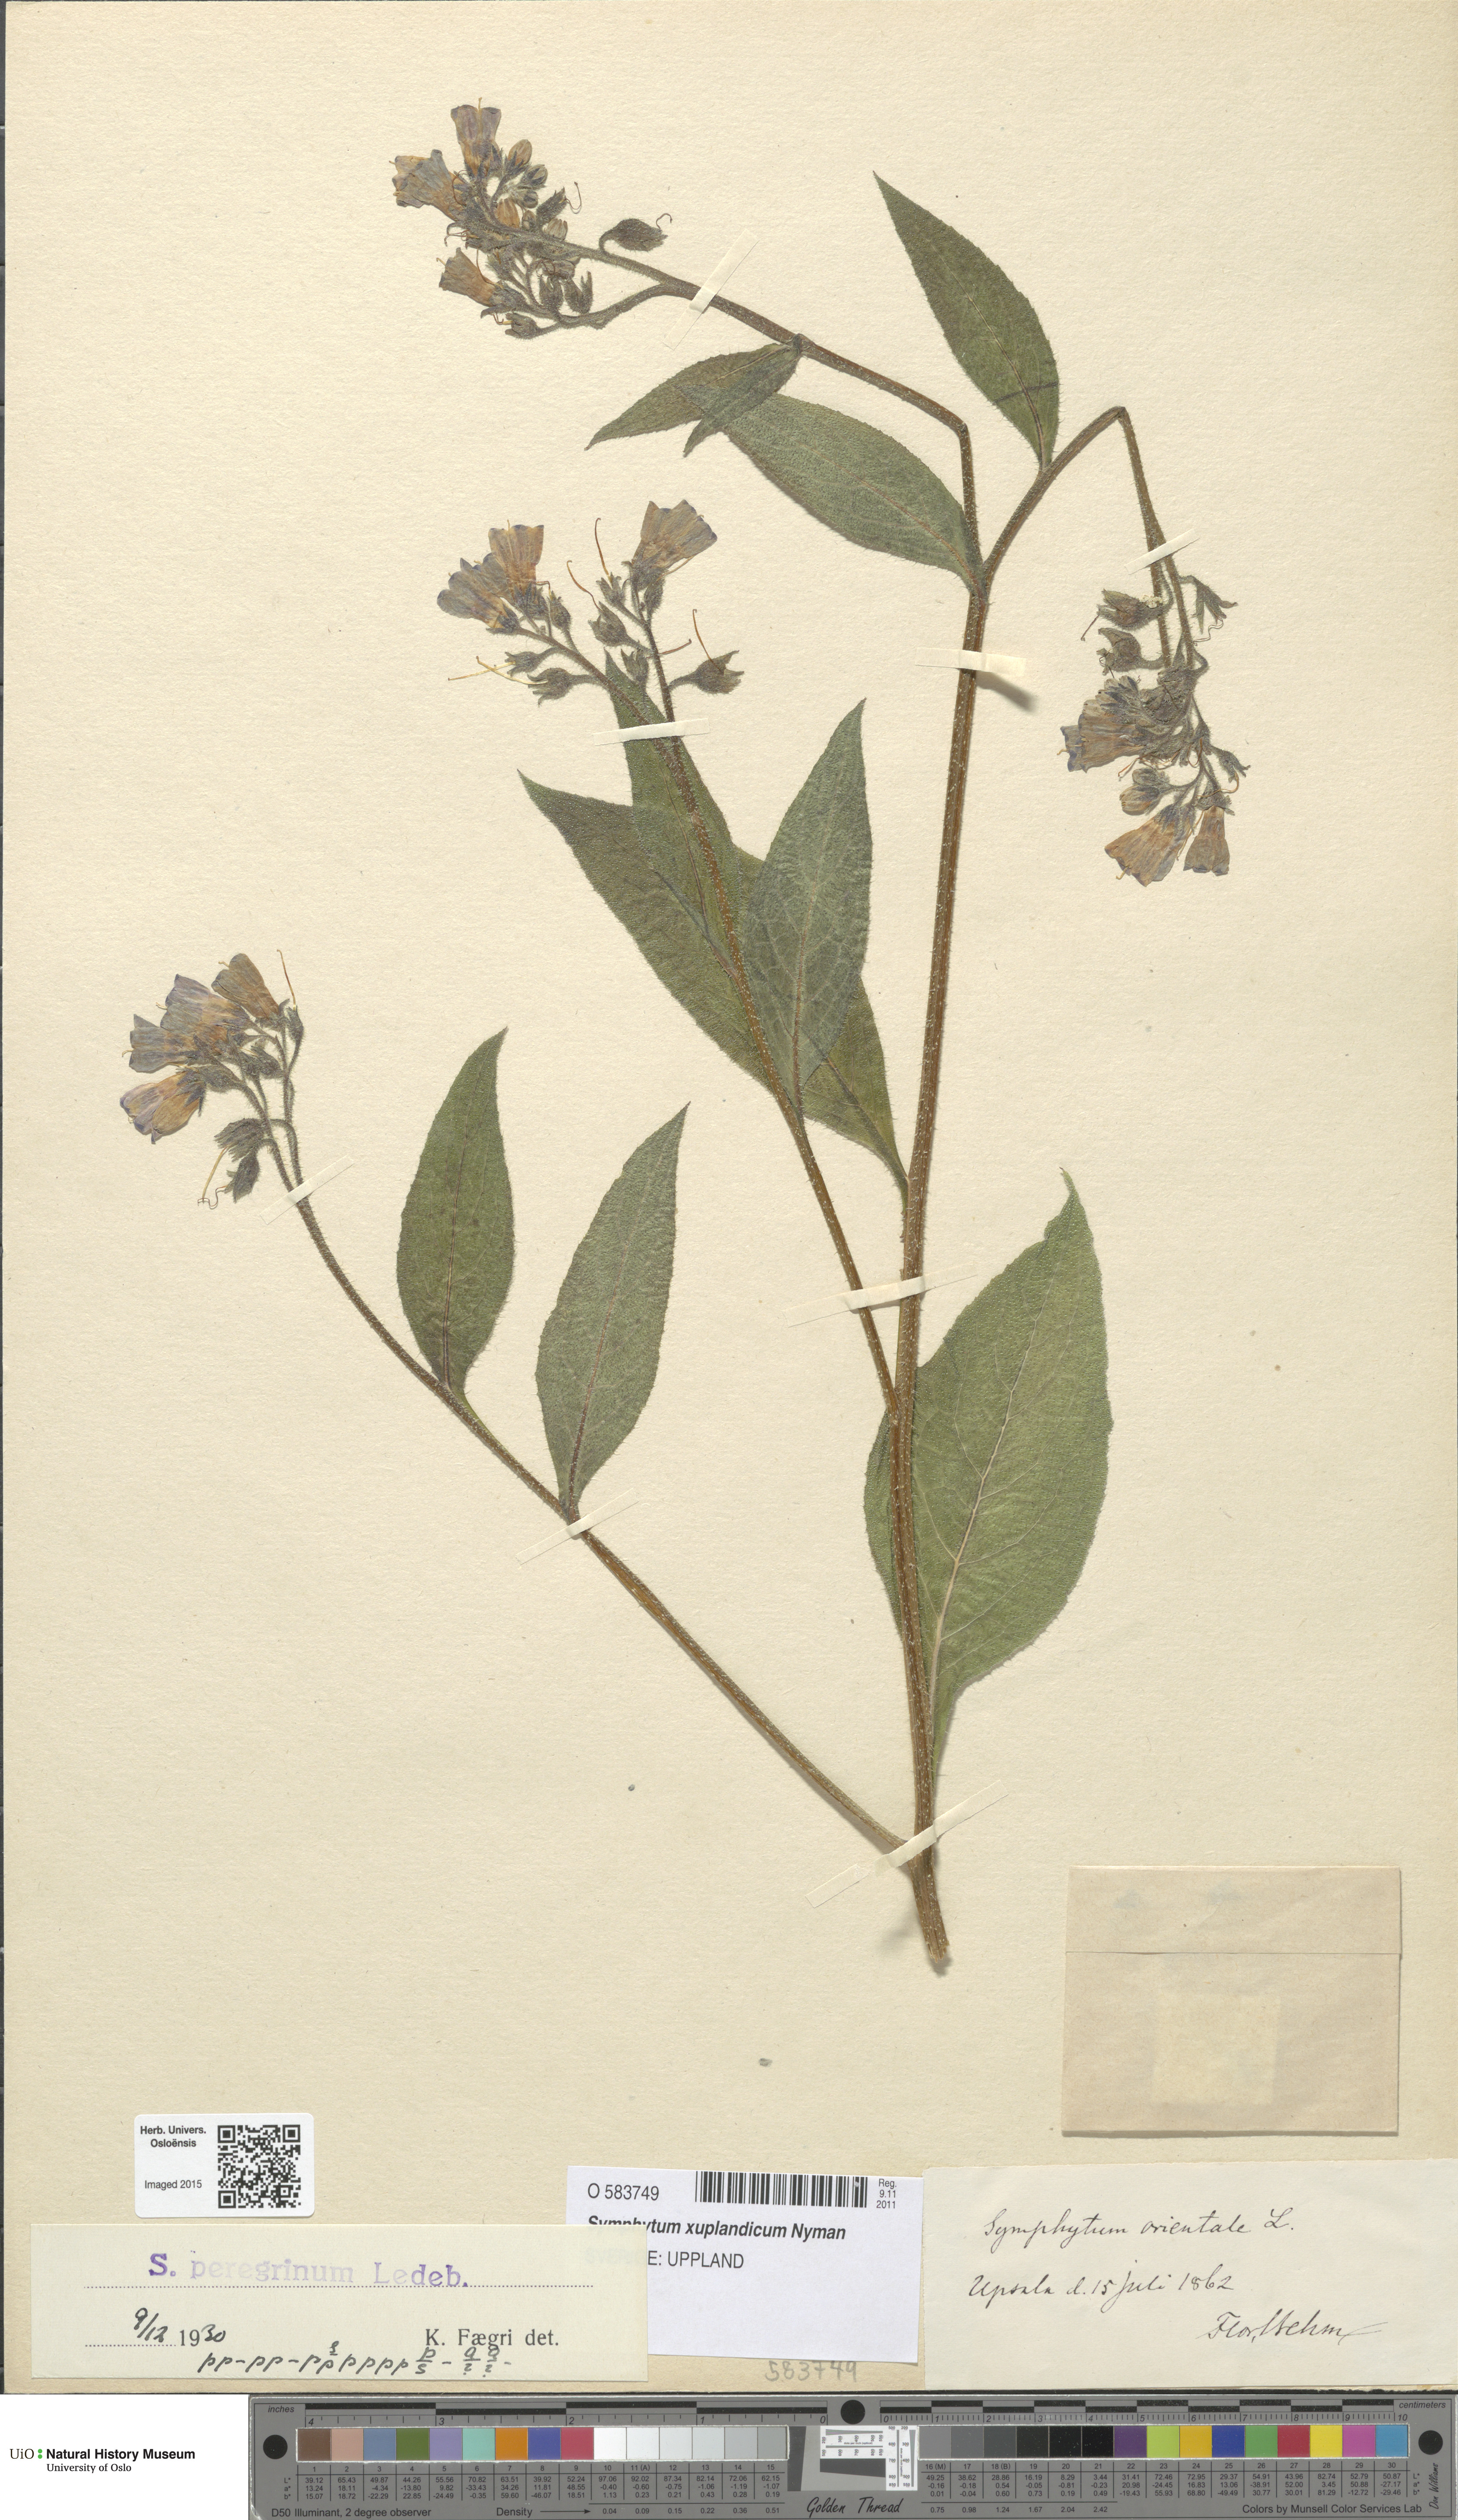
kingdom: Plantae
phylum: Tracheophyta
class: Magnoliopsida
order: Boraginales
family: Boraginaceae
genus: Symphytum
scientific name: Symphytum uplandicum
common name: Russian comfrey
